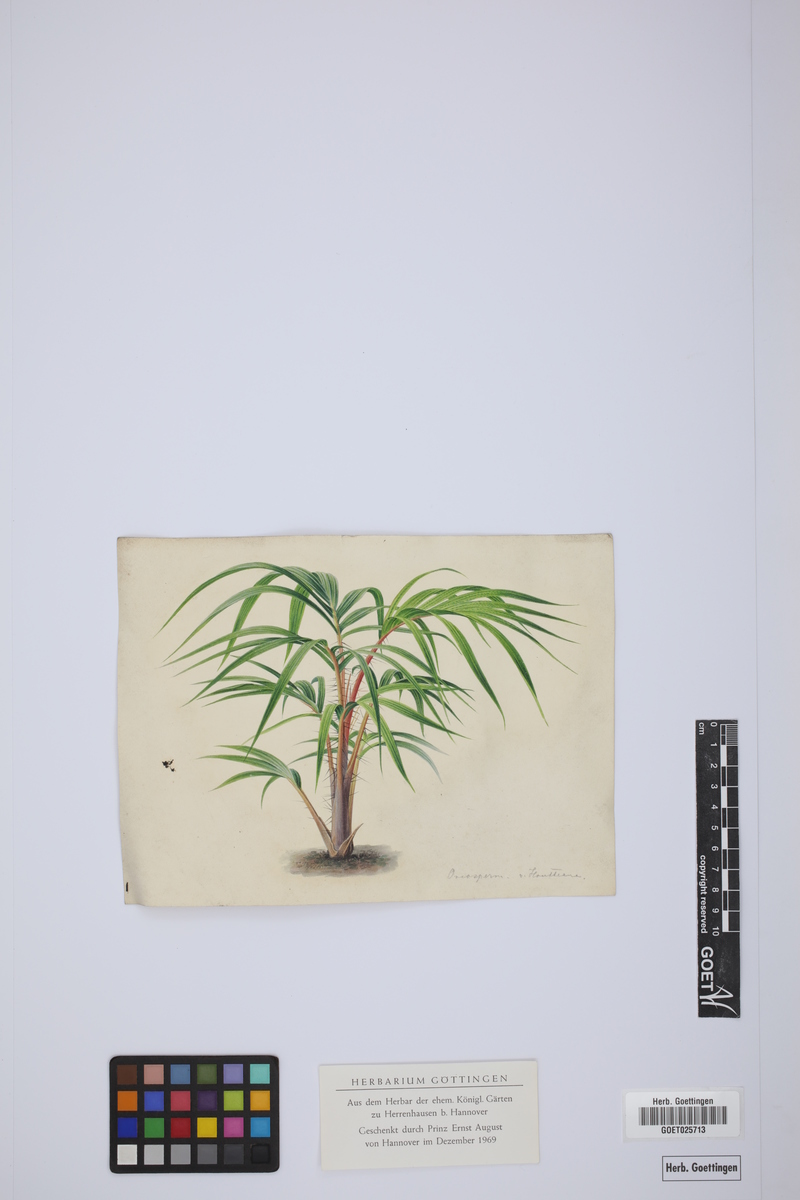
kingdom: Plantae
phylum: Tracheophyta
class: Liliopsida
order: Arecales
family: Arecaceae
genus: Oncosperma
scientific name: Oncosperma horridum
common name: Thorny palm
